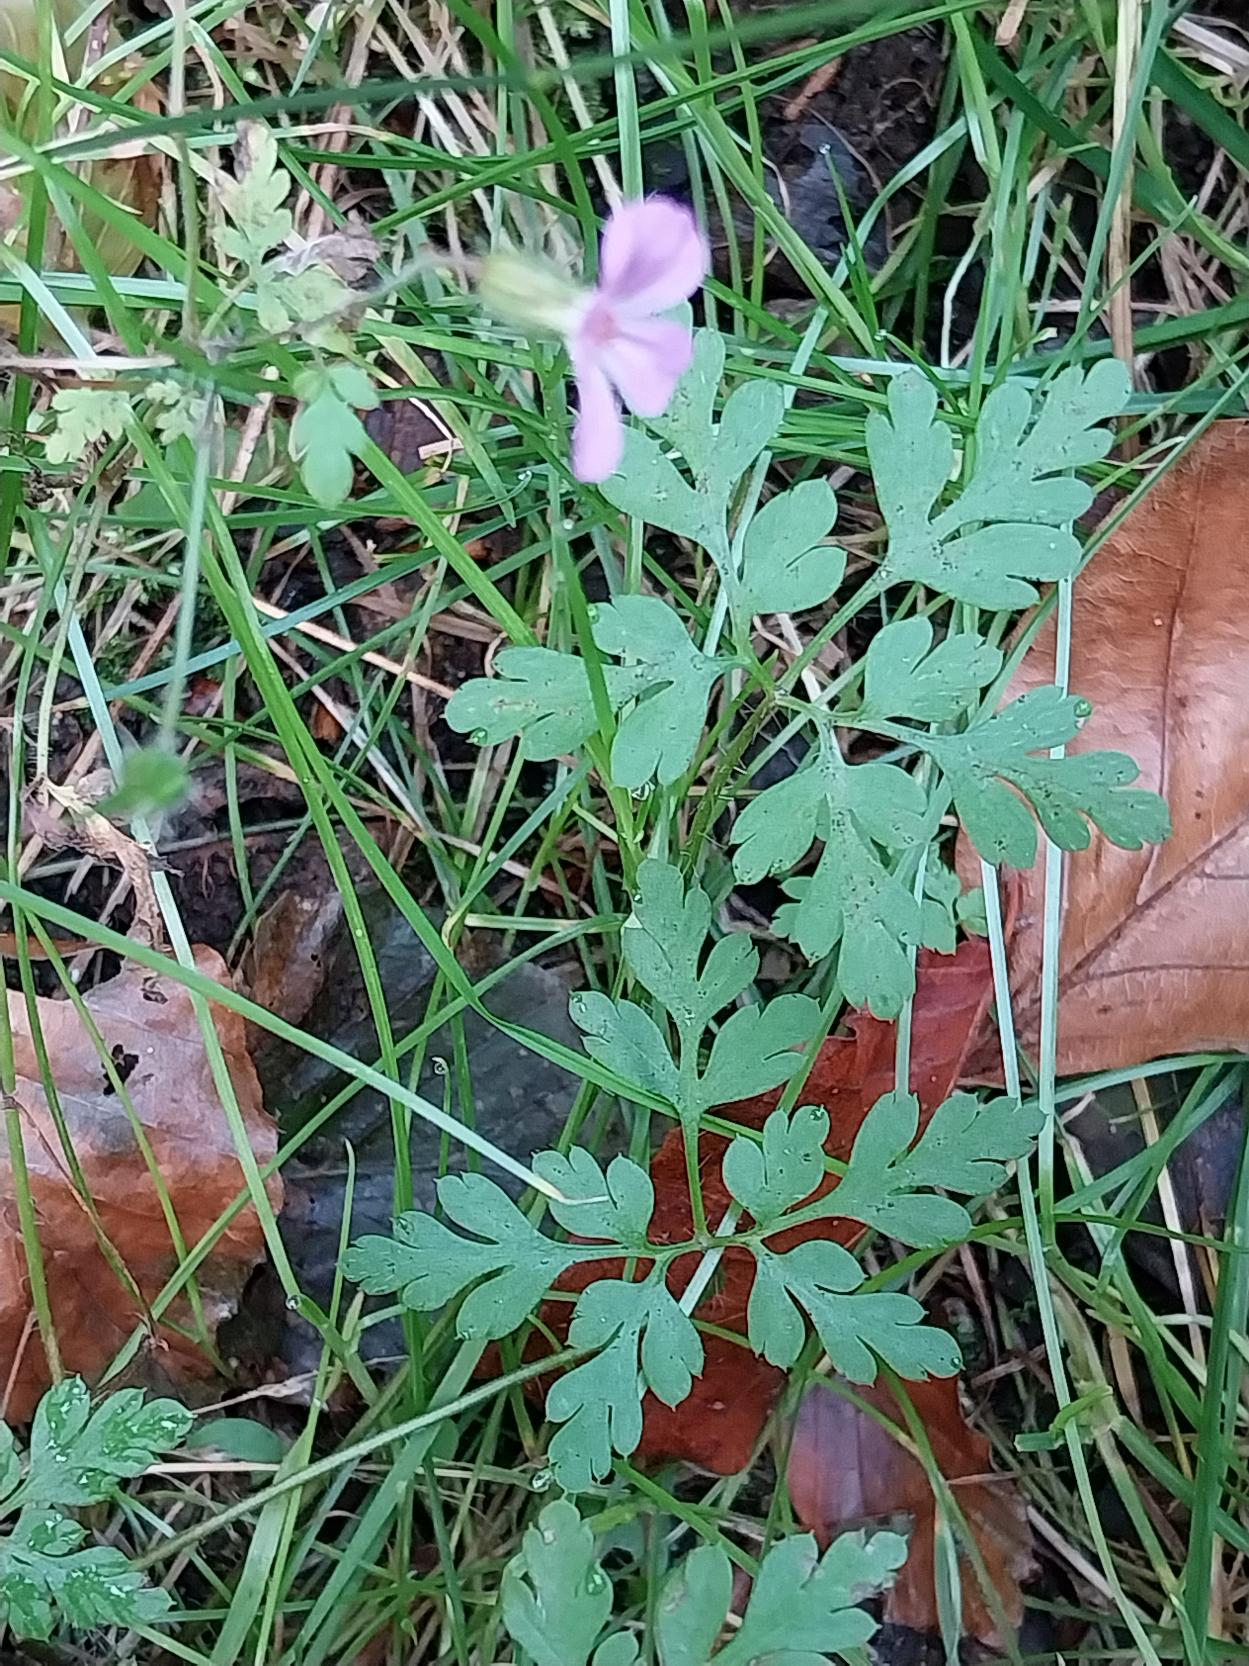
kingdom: Plantae
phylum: Tracheophyta
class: Magnoliopsida
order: Geraniales
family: Geraniaceae
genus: Geranium
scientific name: Geranium robertianum
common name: Stinkende storkenæb
